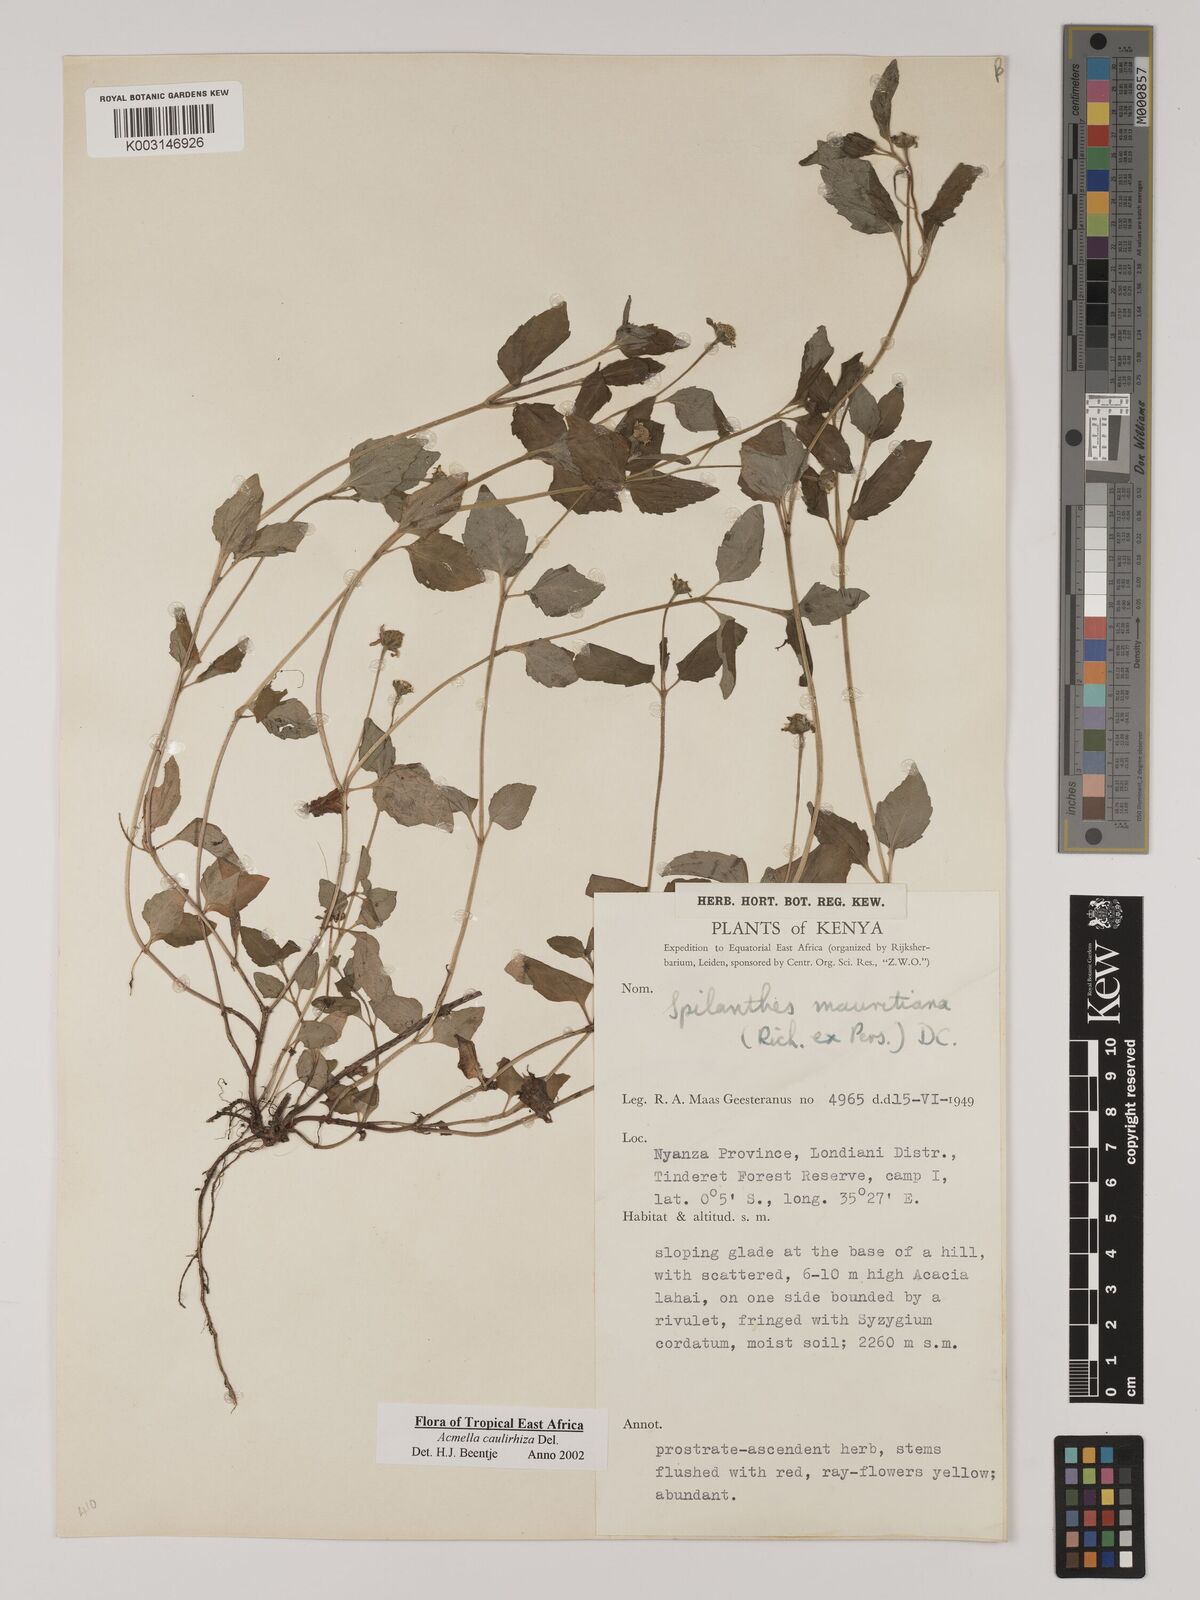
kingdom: Plantae
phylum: Tracheophyta
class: Magnoliopsida
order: Asterales
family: Asteraceae
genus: Acmella
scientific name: Acmella caulirhiza
